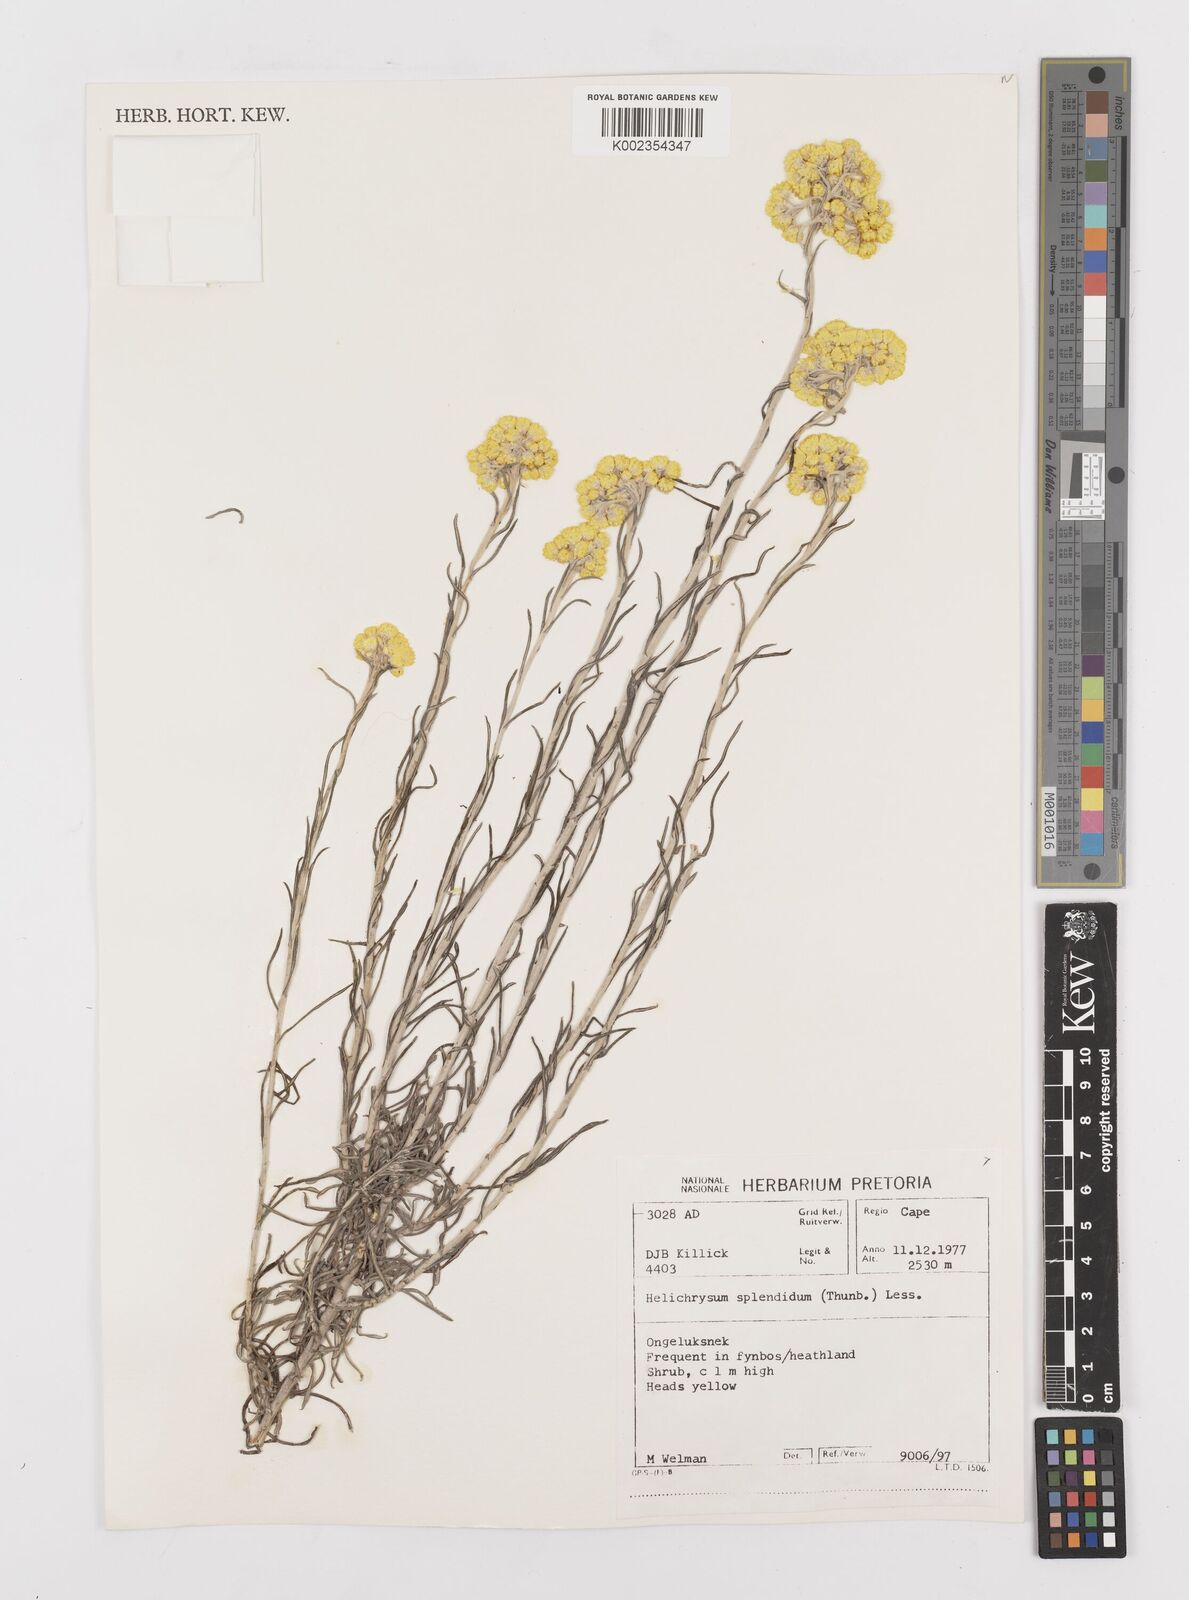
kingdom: Plantae
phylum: Tracheophyta
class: Magnoliopsida
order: Asterales
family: Asteraceae
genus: Helichrysum
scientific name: Helichrysum splendidum
